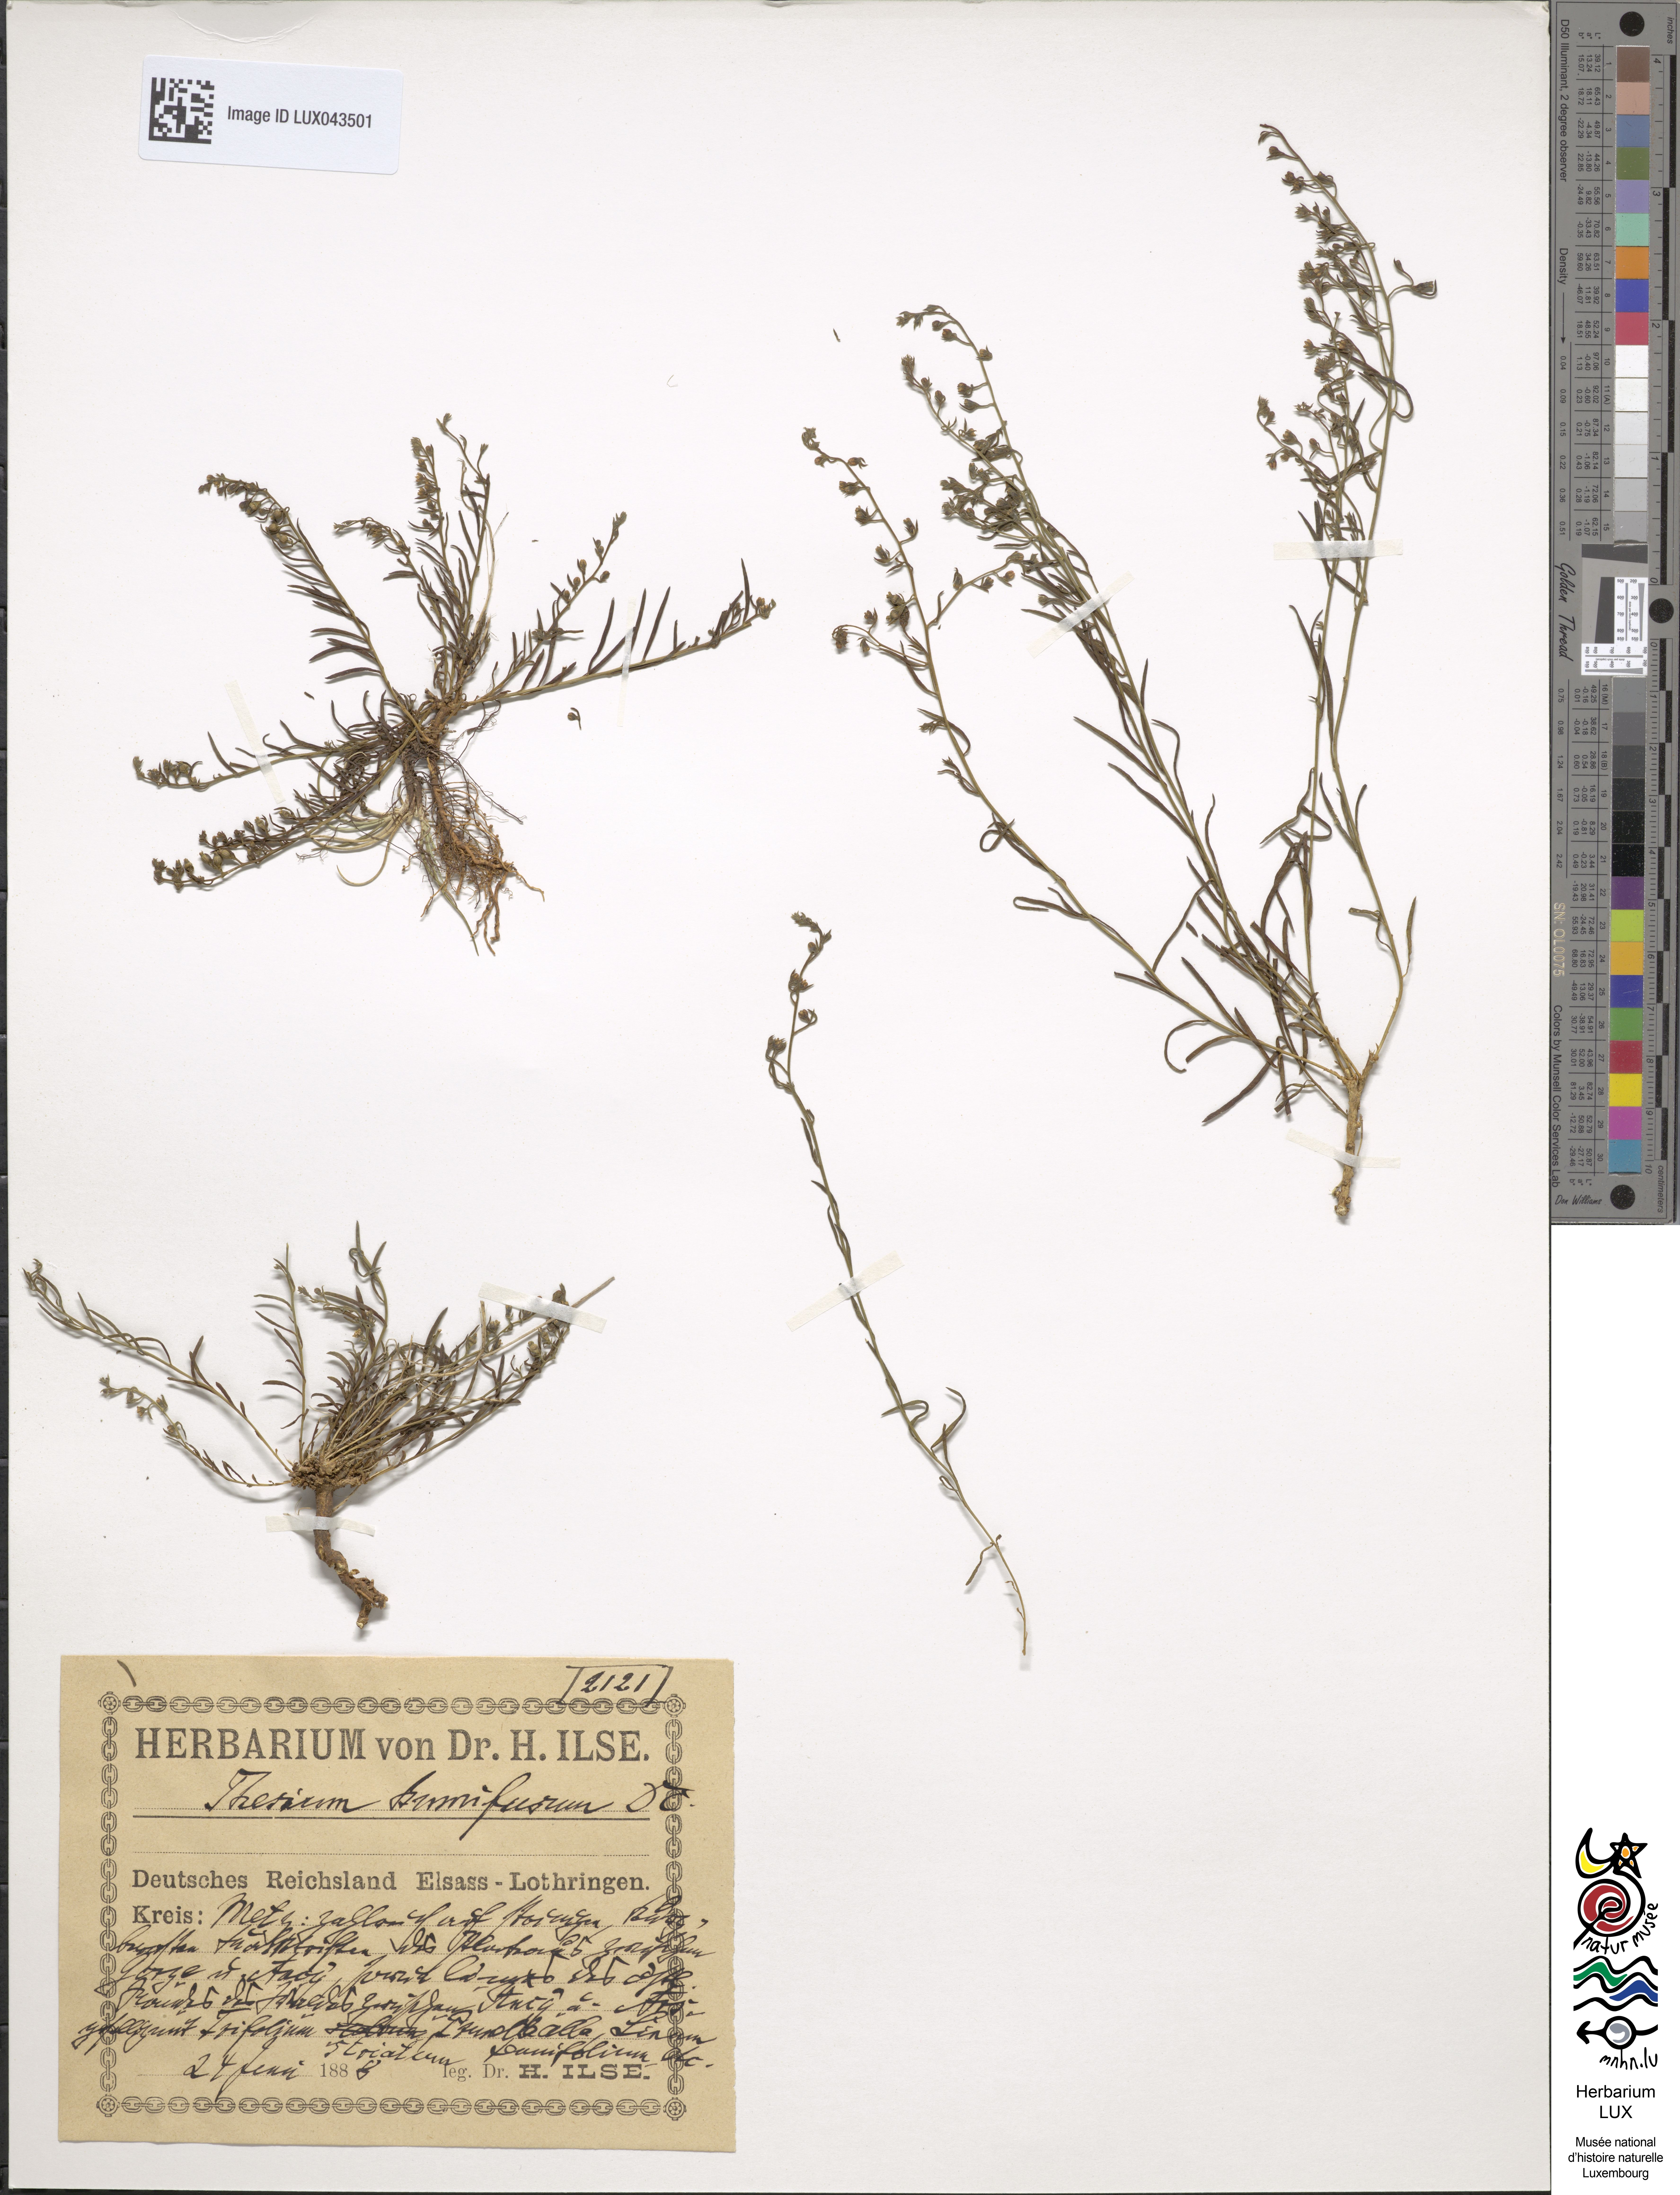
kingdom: Plantae
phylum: Tracheophyta
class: Magnoliopsida
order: Santalales
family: Thesiaceae
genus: Thesium
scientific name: Thesium humifusum
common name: Bastard-toadflax
